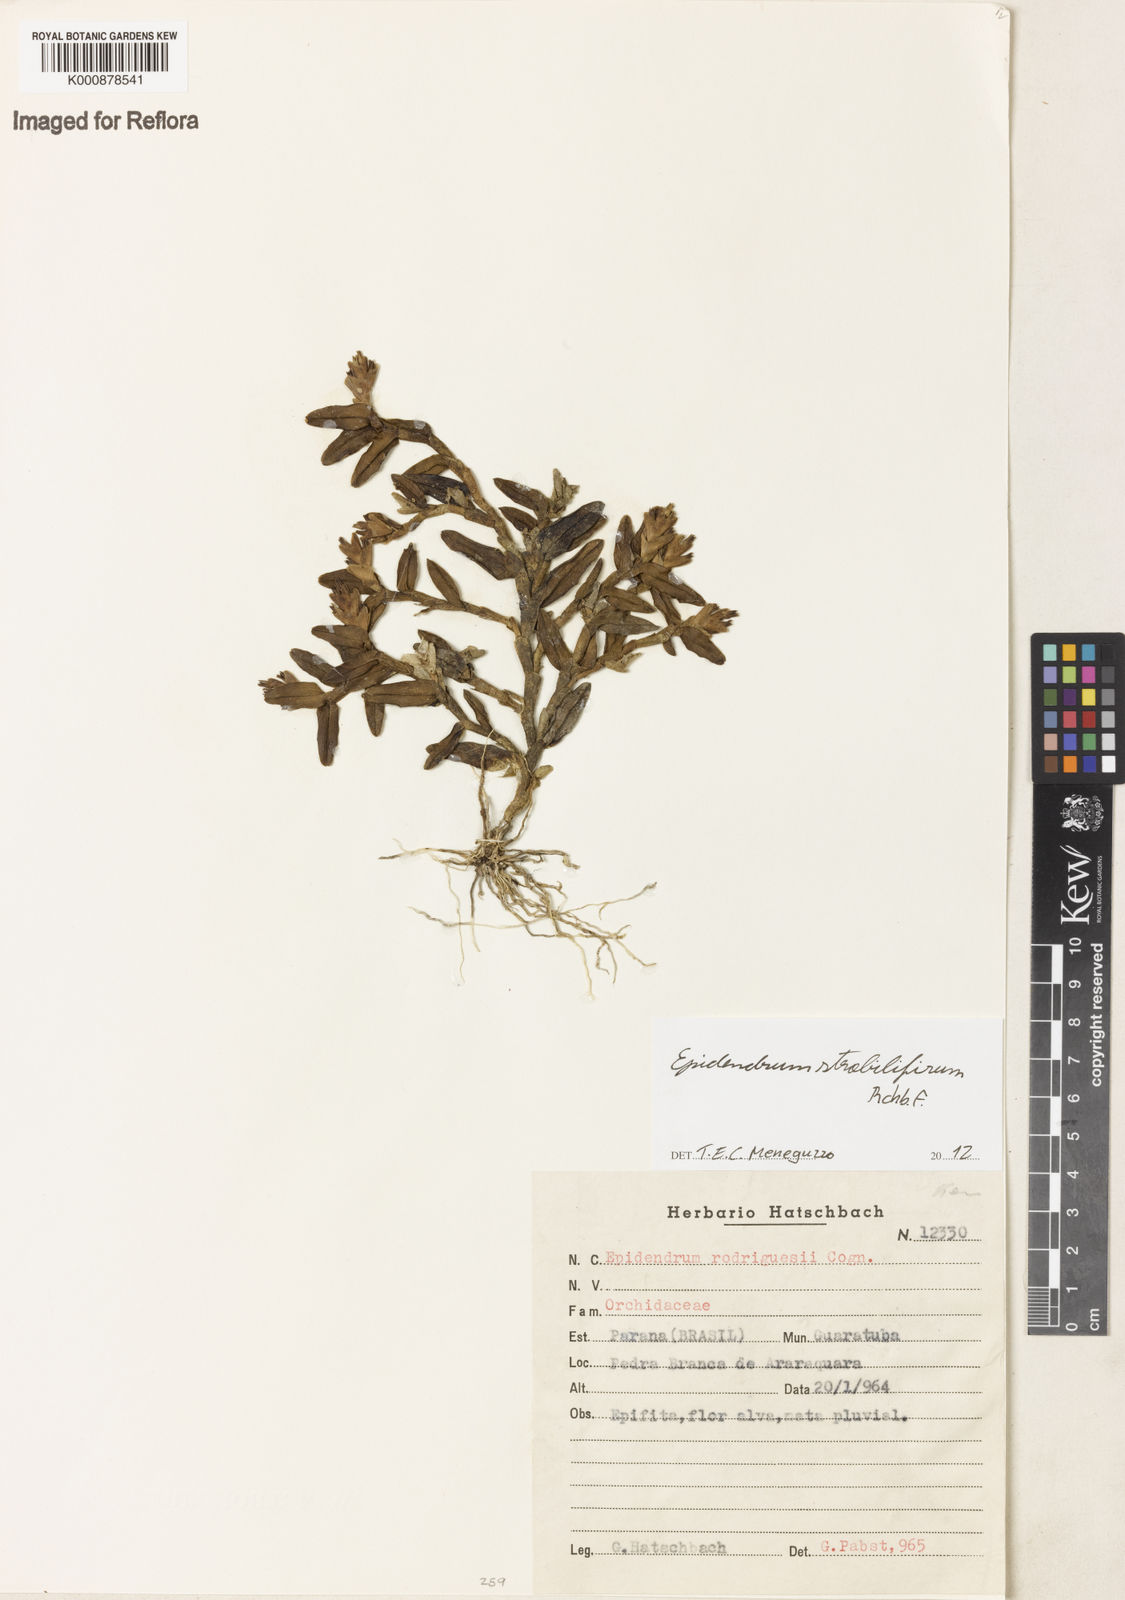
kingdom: Plantae
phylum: Tracheophyta
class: Liliopsida
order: Asparagales
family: Orchidaceae
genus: Epidendrum
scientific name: Epidendrum strobiliferum
